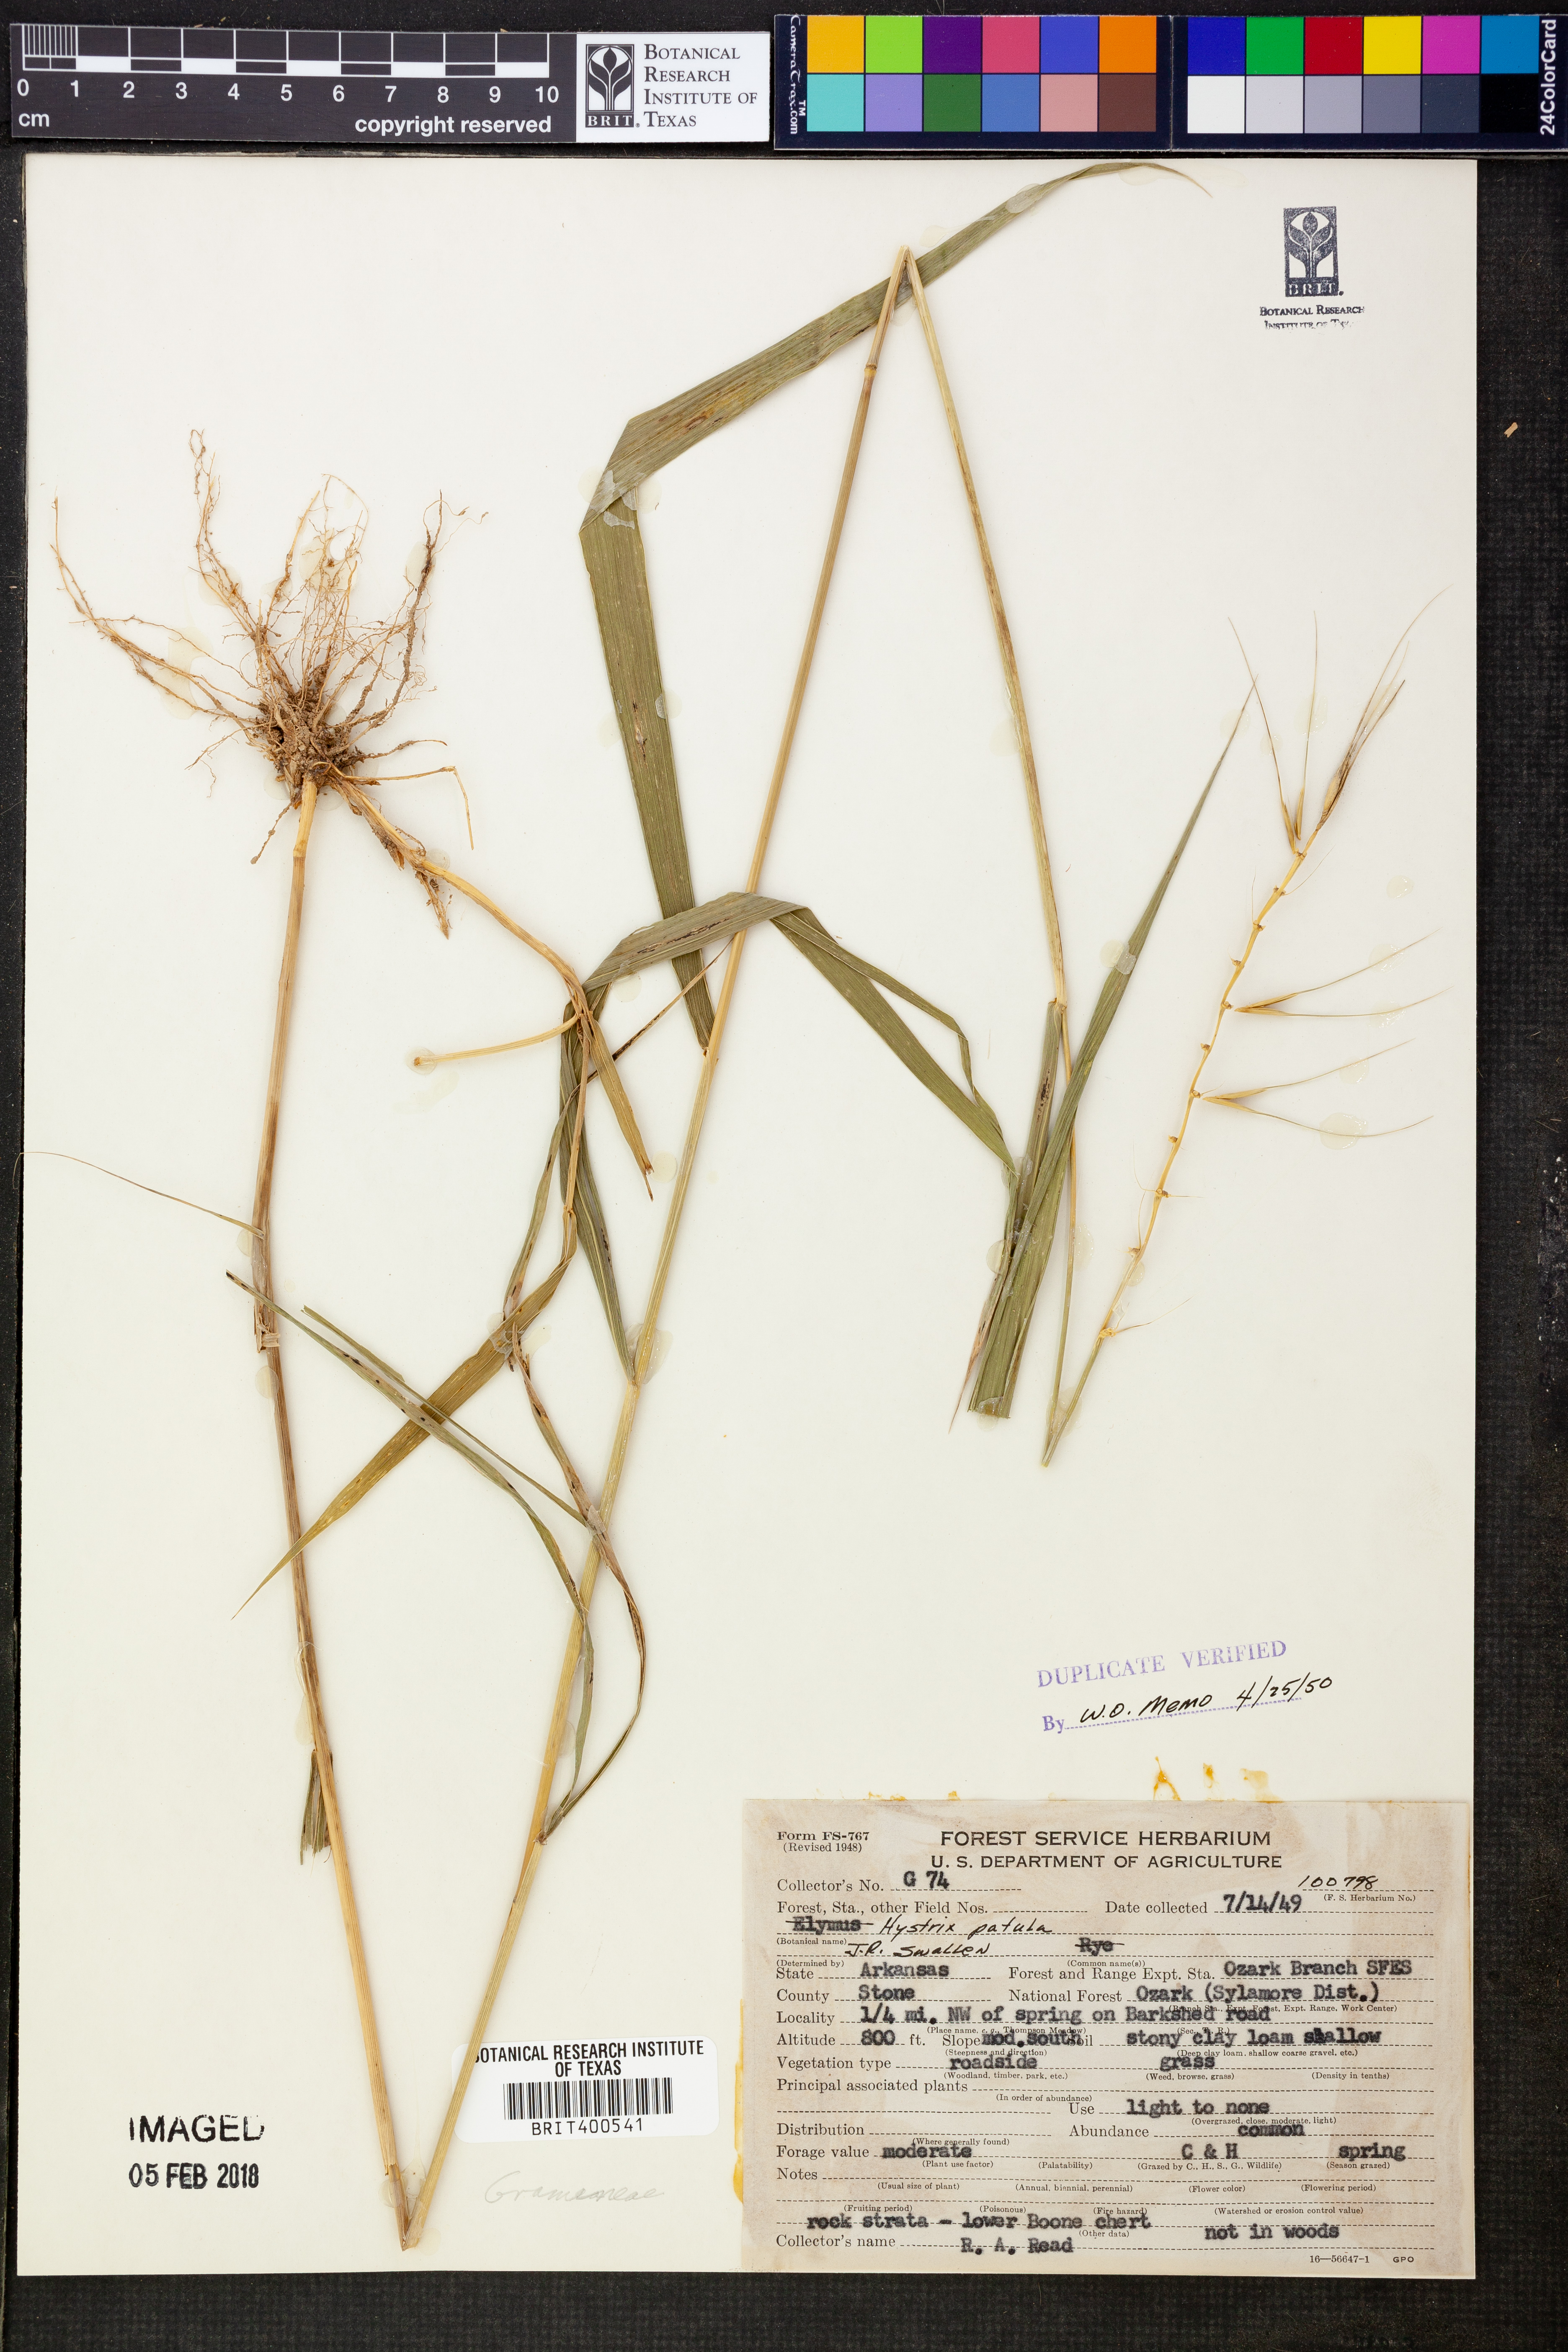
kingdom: Plantae
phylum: Tracheophyta
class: Liliopsida
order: Poales
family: Poaceae
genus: Elymus
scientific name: Elymus hystrix
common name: Bottlebrush grass
